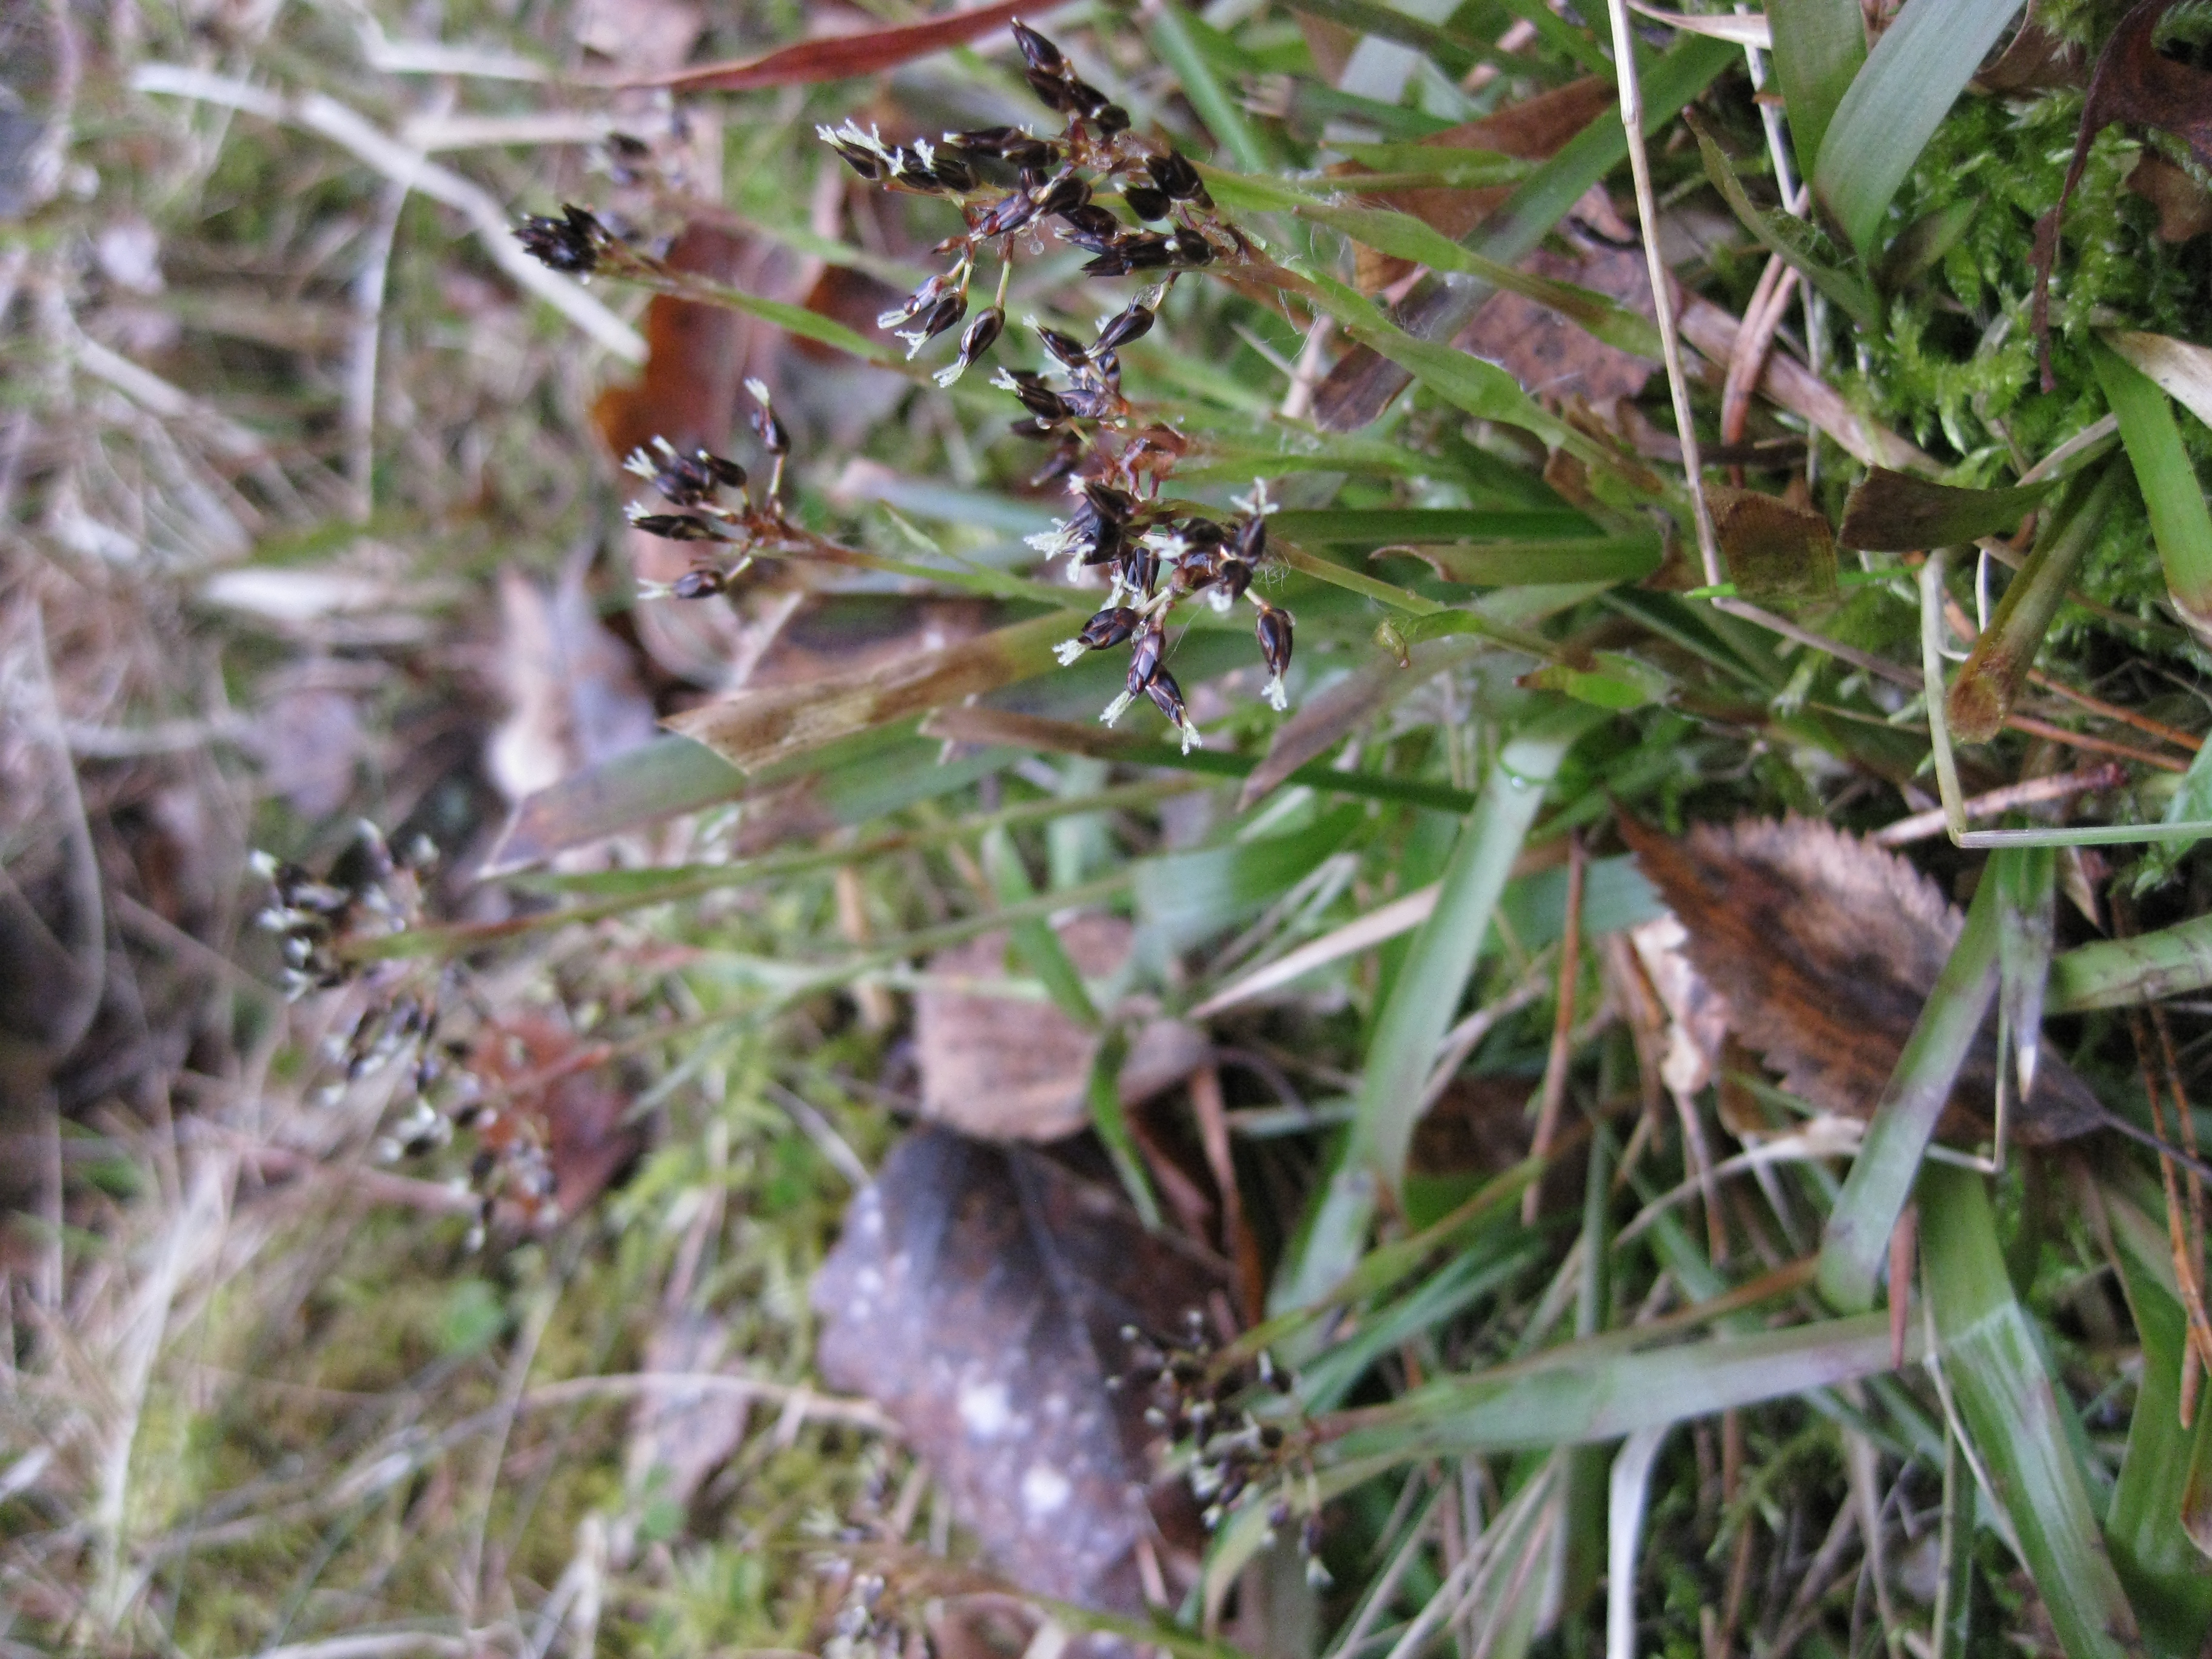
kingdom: Plantae
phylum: Tracheophyta
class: Liliopsida
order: Poales
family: Juncaceae
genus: Luzula
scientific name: Luzula pilosa
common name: Hairy wood-rush
